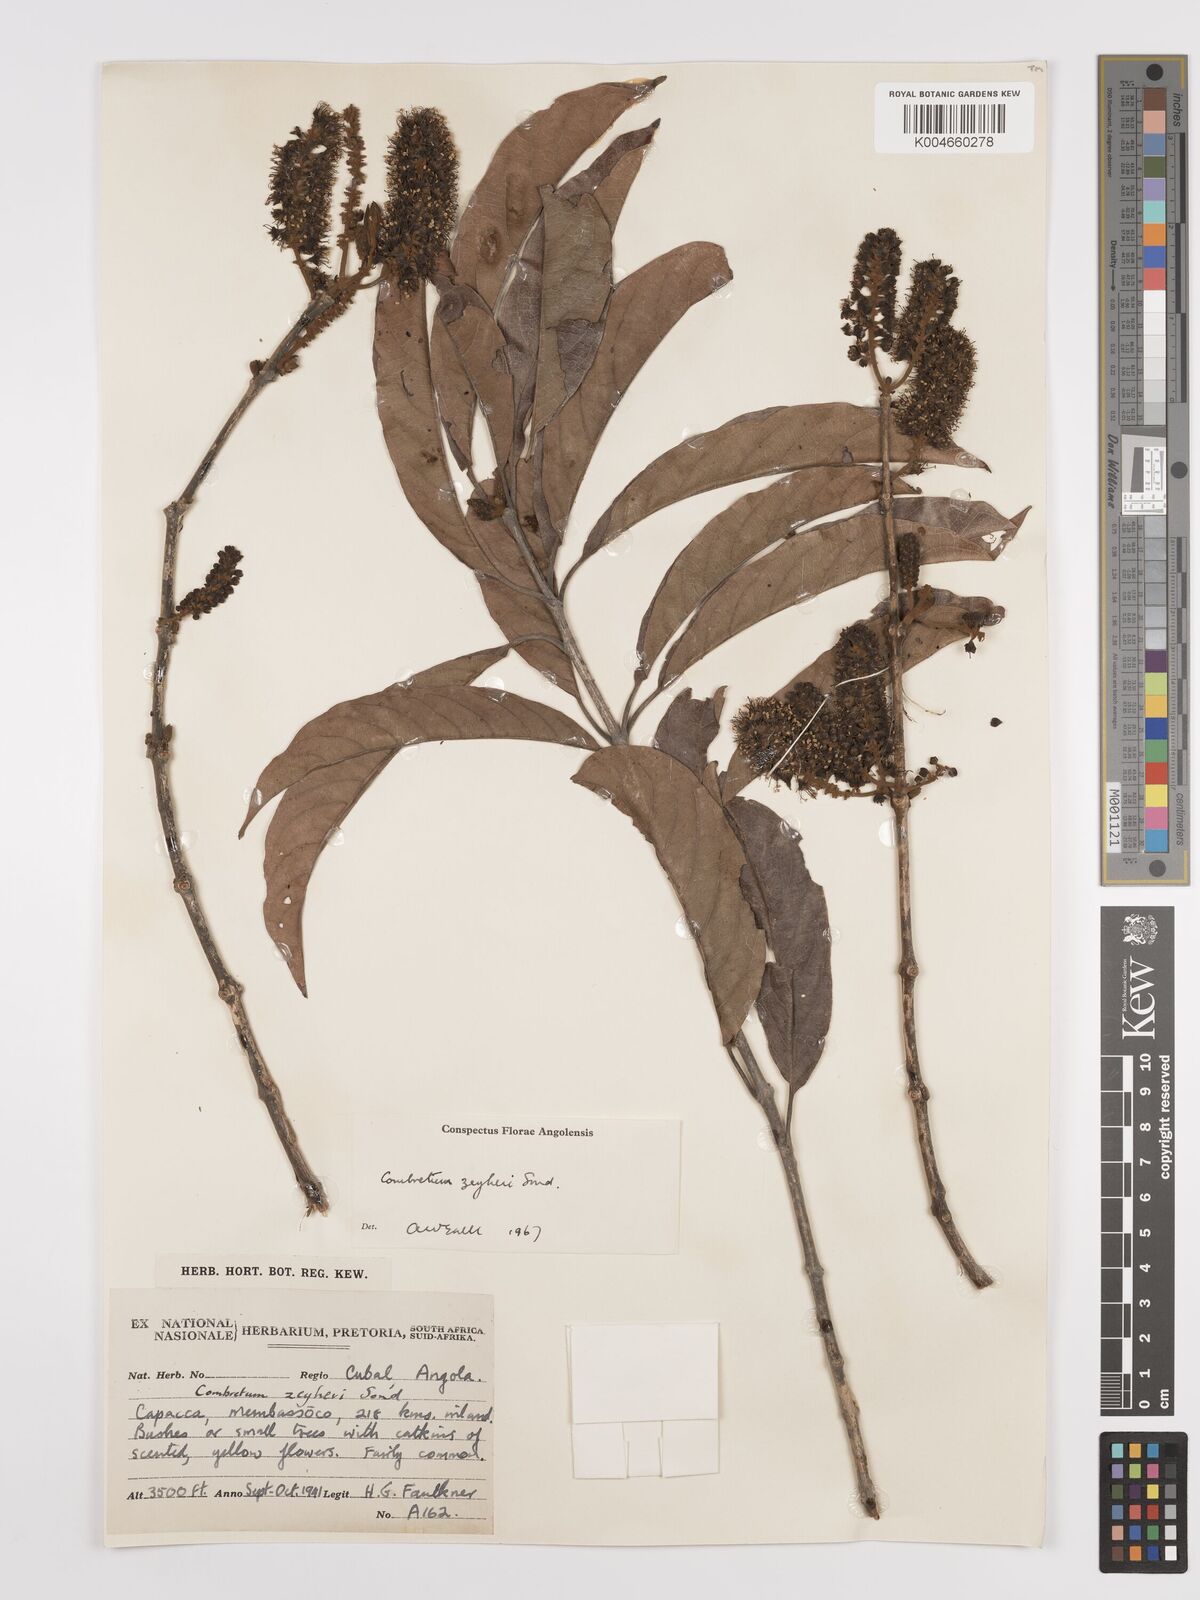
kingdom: Plantae
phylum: Tracheophyta
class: Magnoliopsida
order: Myrtales
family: Combretaceae
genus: Combretum
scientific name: Combretum zeyheri
